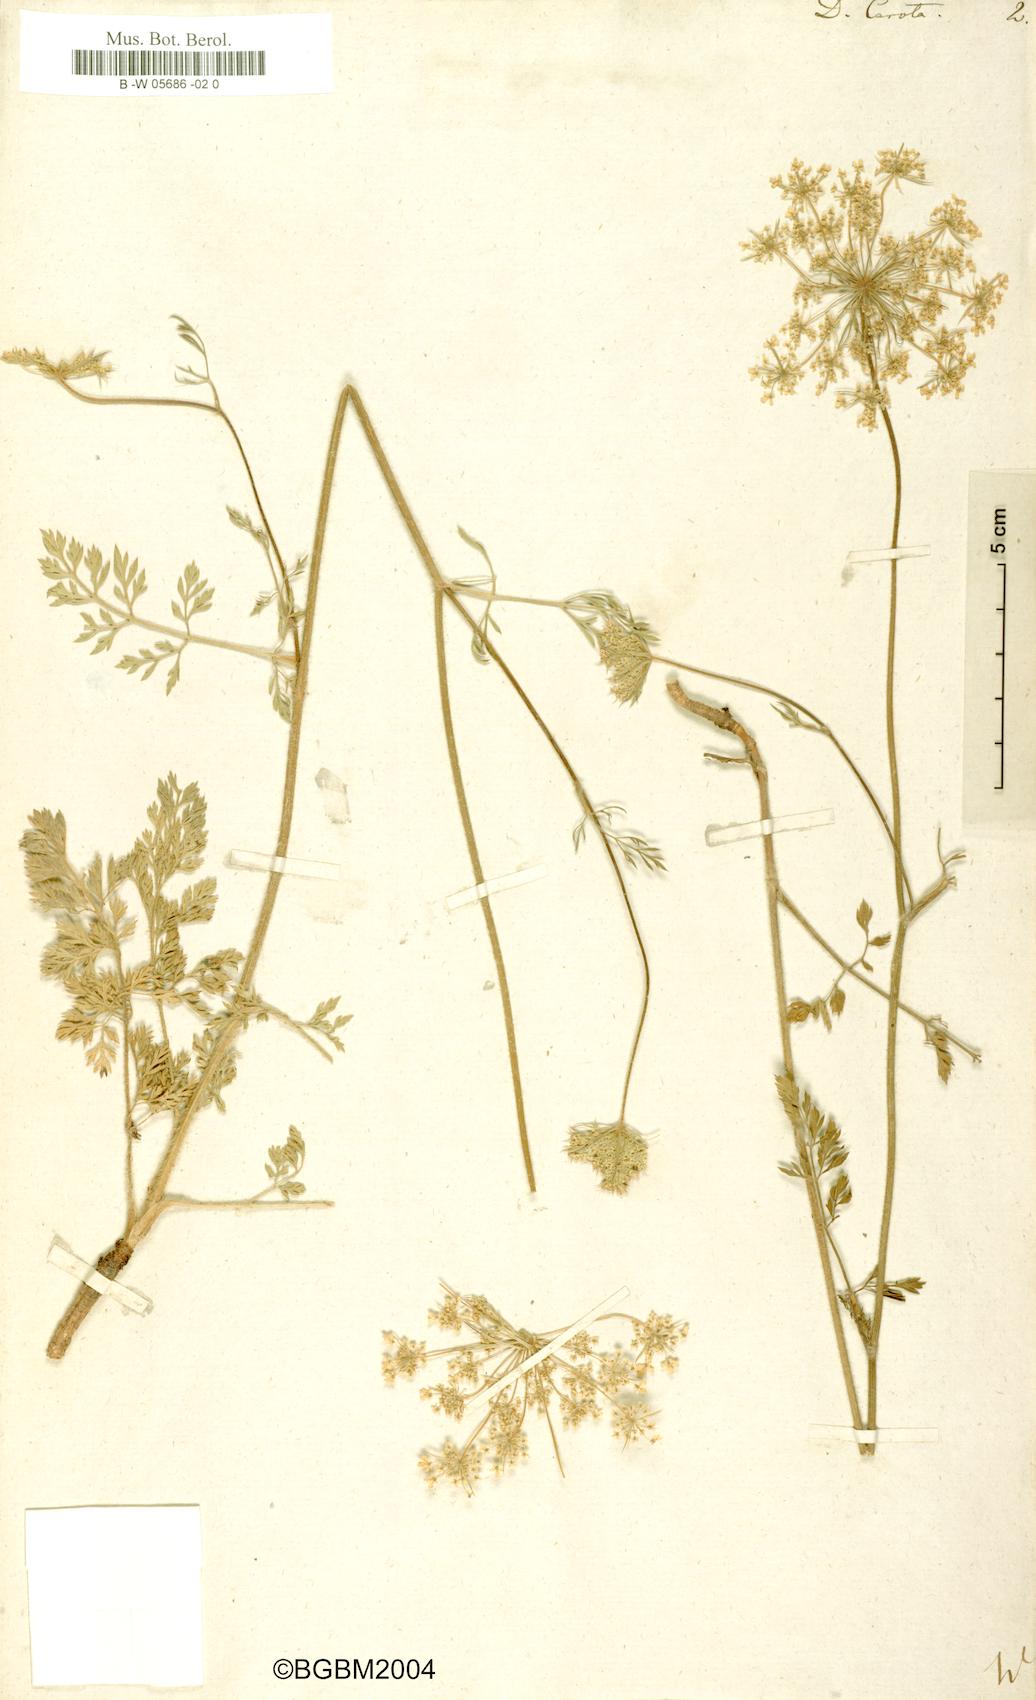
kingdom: Plantae
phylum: Tracheophyta
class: Magnoliopsida
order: Apiales
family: Apiaceae
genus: Daucus
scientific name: Daucus carota
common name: Wild carrot
